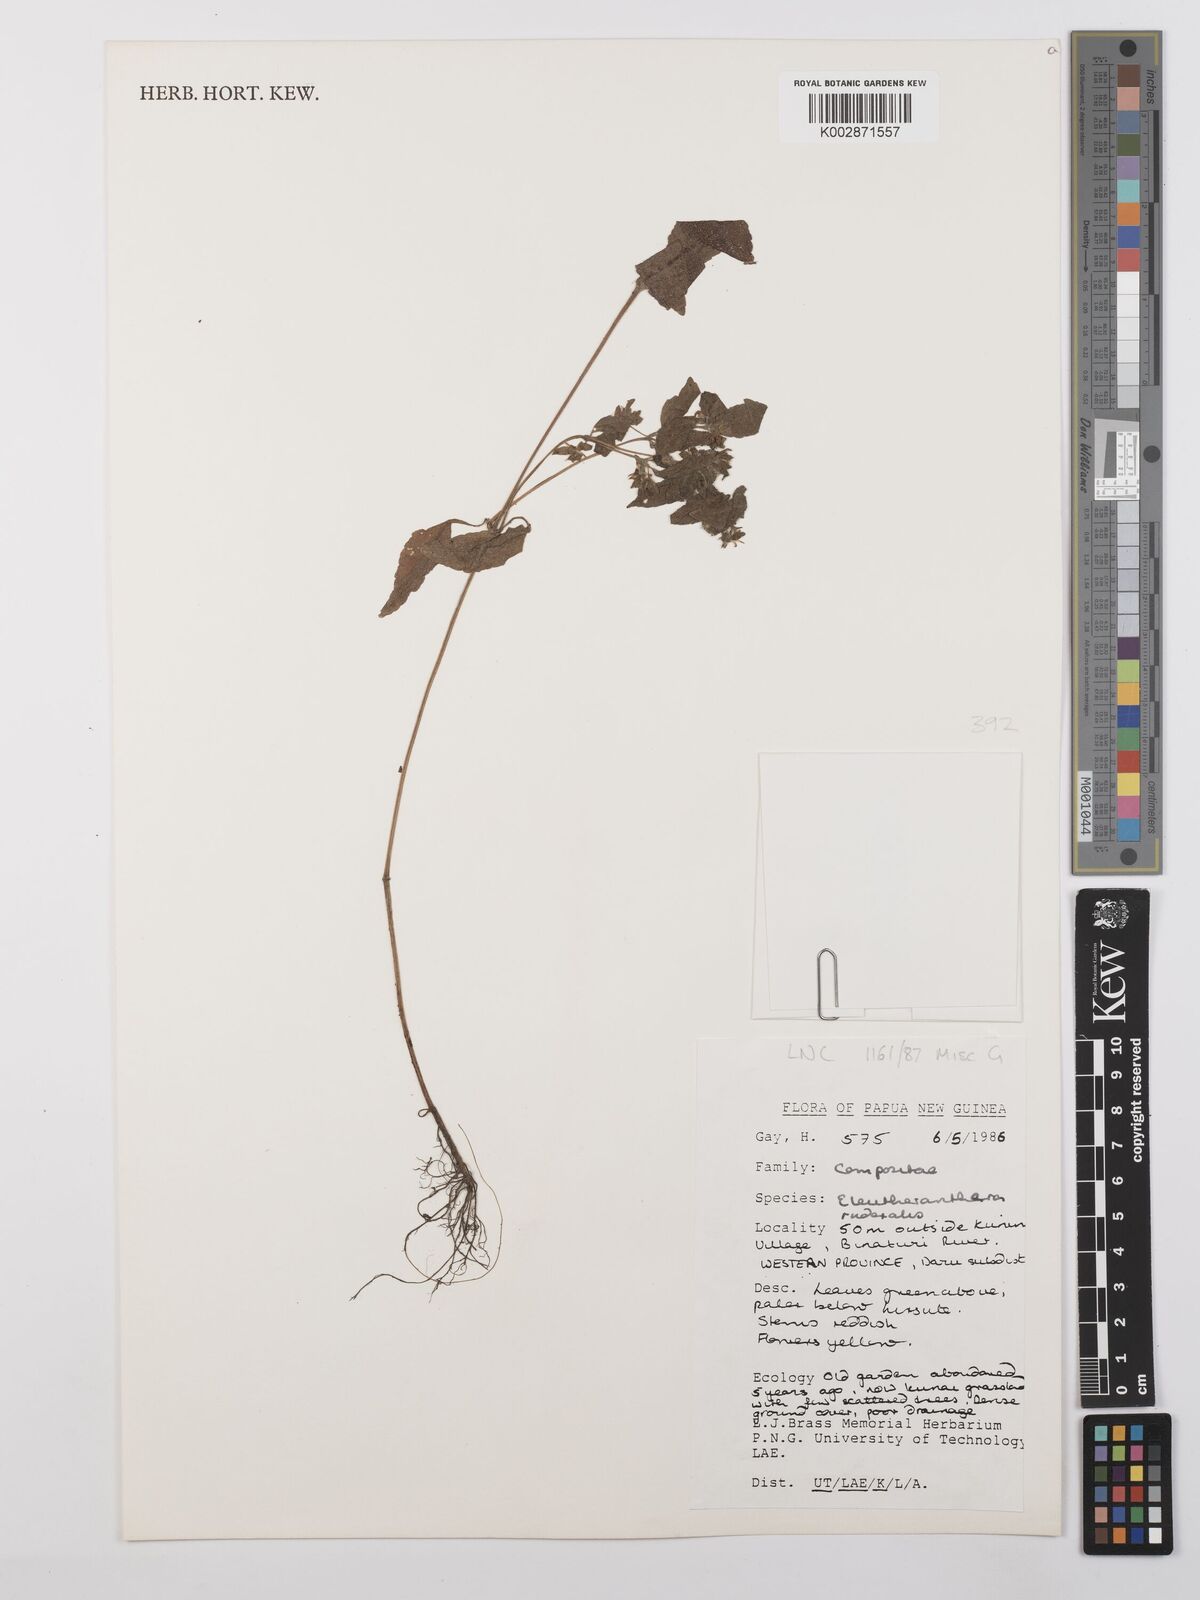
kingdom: Plantae
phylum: Tracheophyta
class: Magnoliopsida
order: Asterales
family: Asteraceae
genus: Eleutheranthera
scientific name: Eleutheranthera ruderalis
